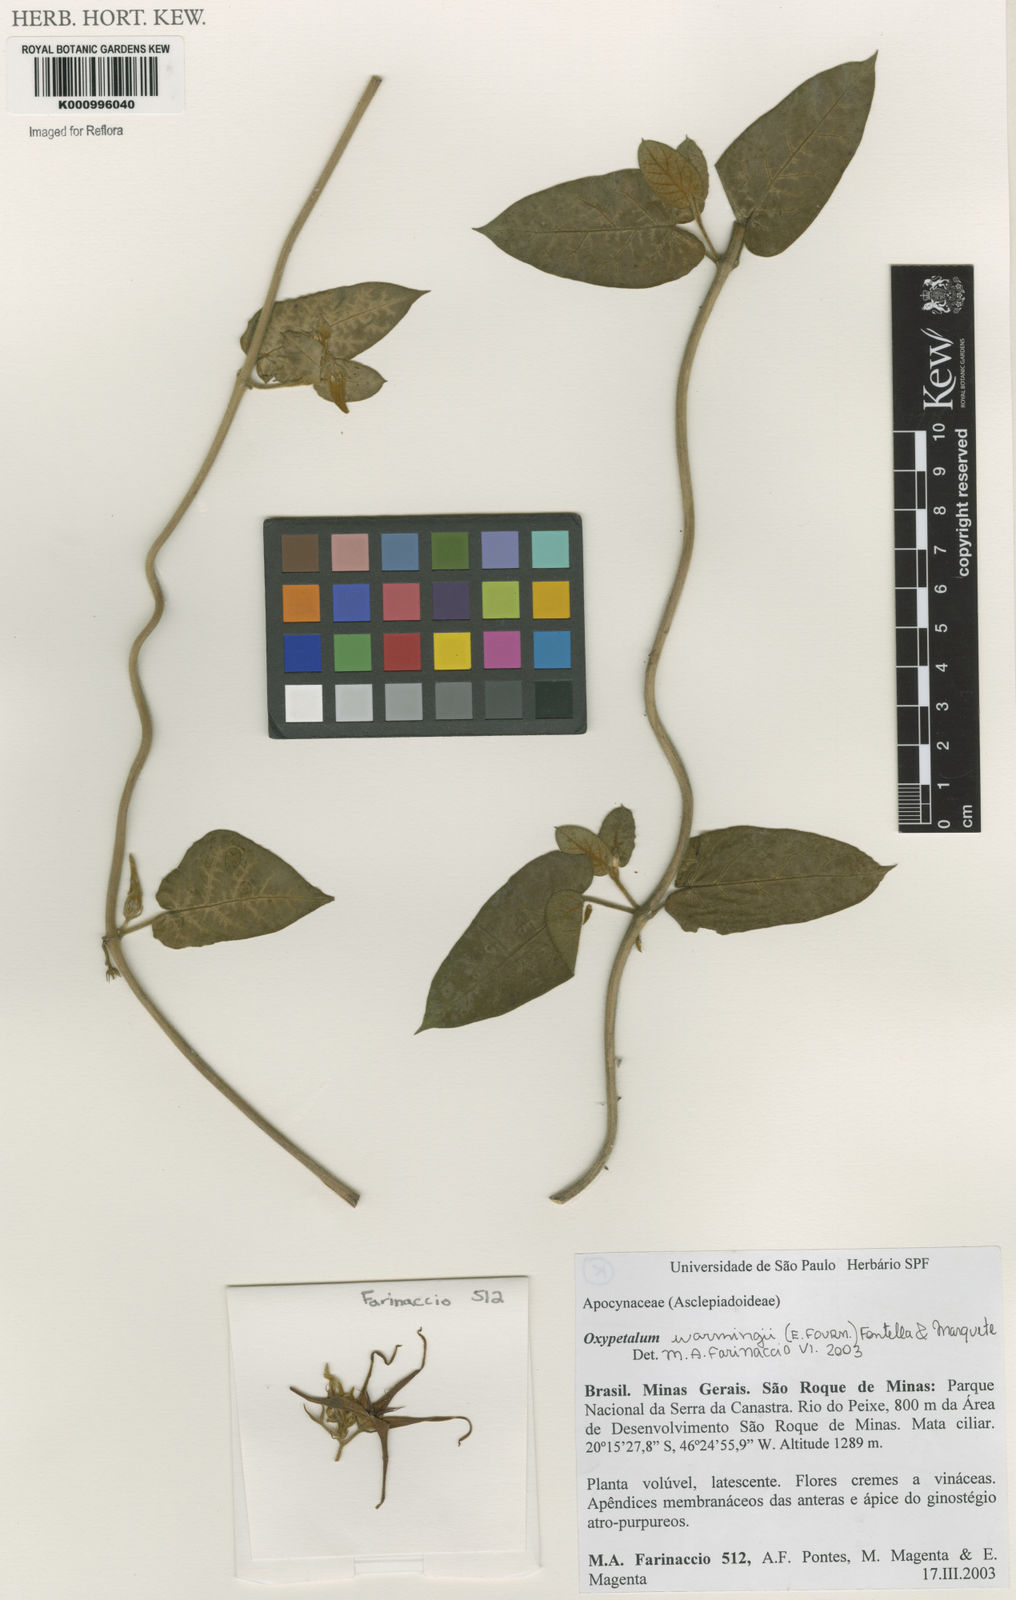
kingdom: Plantae
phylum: Tracheophyta
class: Magnoliopsida
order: Gentianales
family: Apocynaceae
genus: Oxypetalum
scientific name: Oxypetalum warmingii
